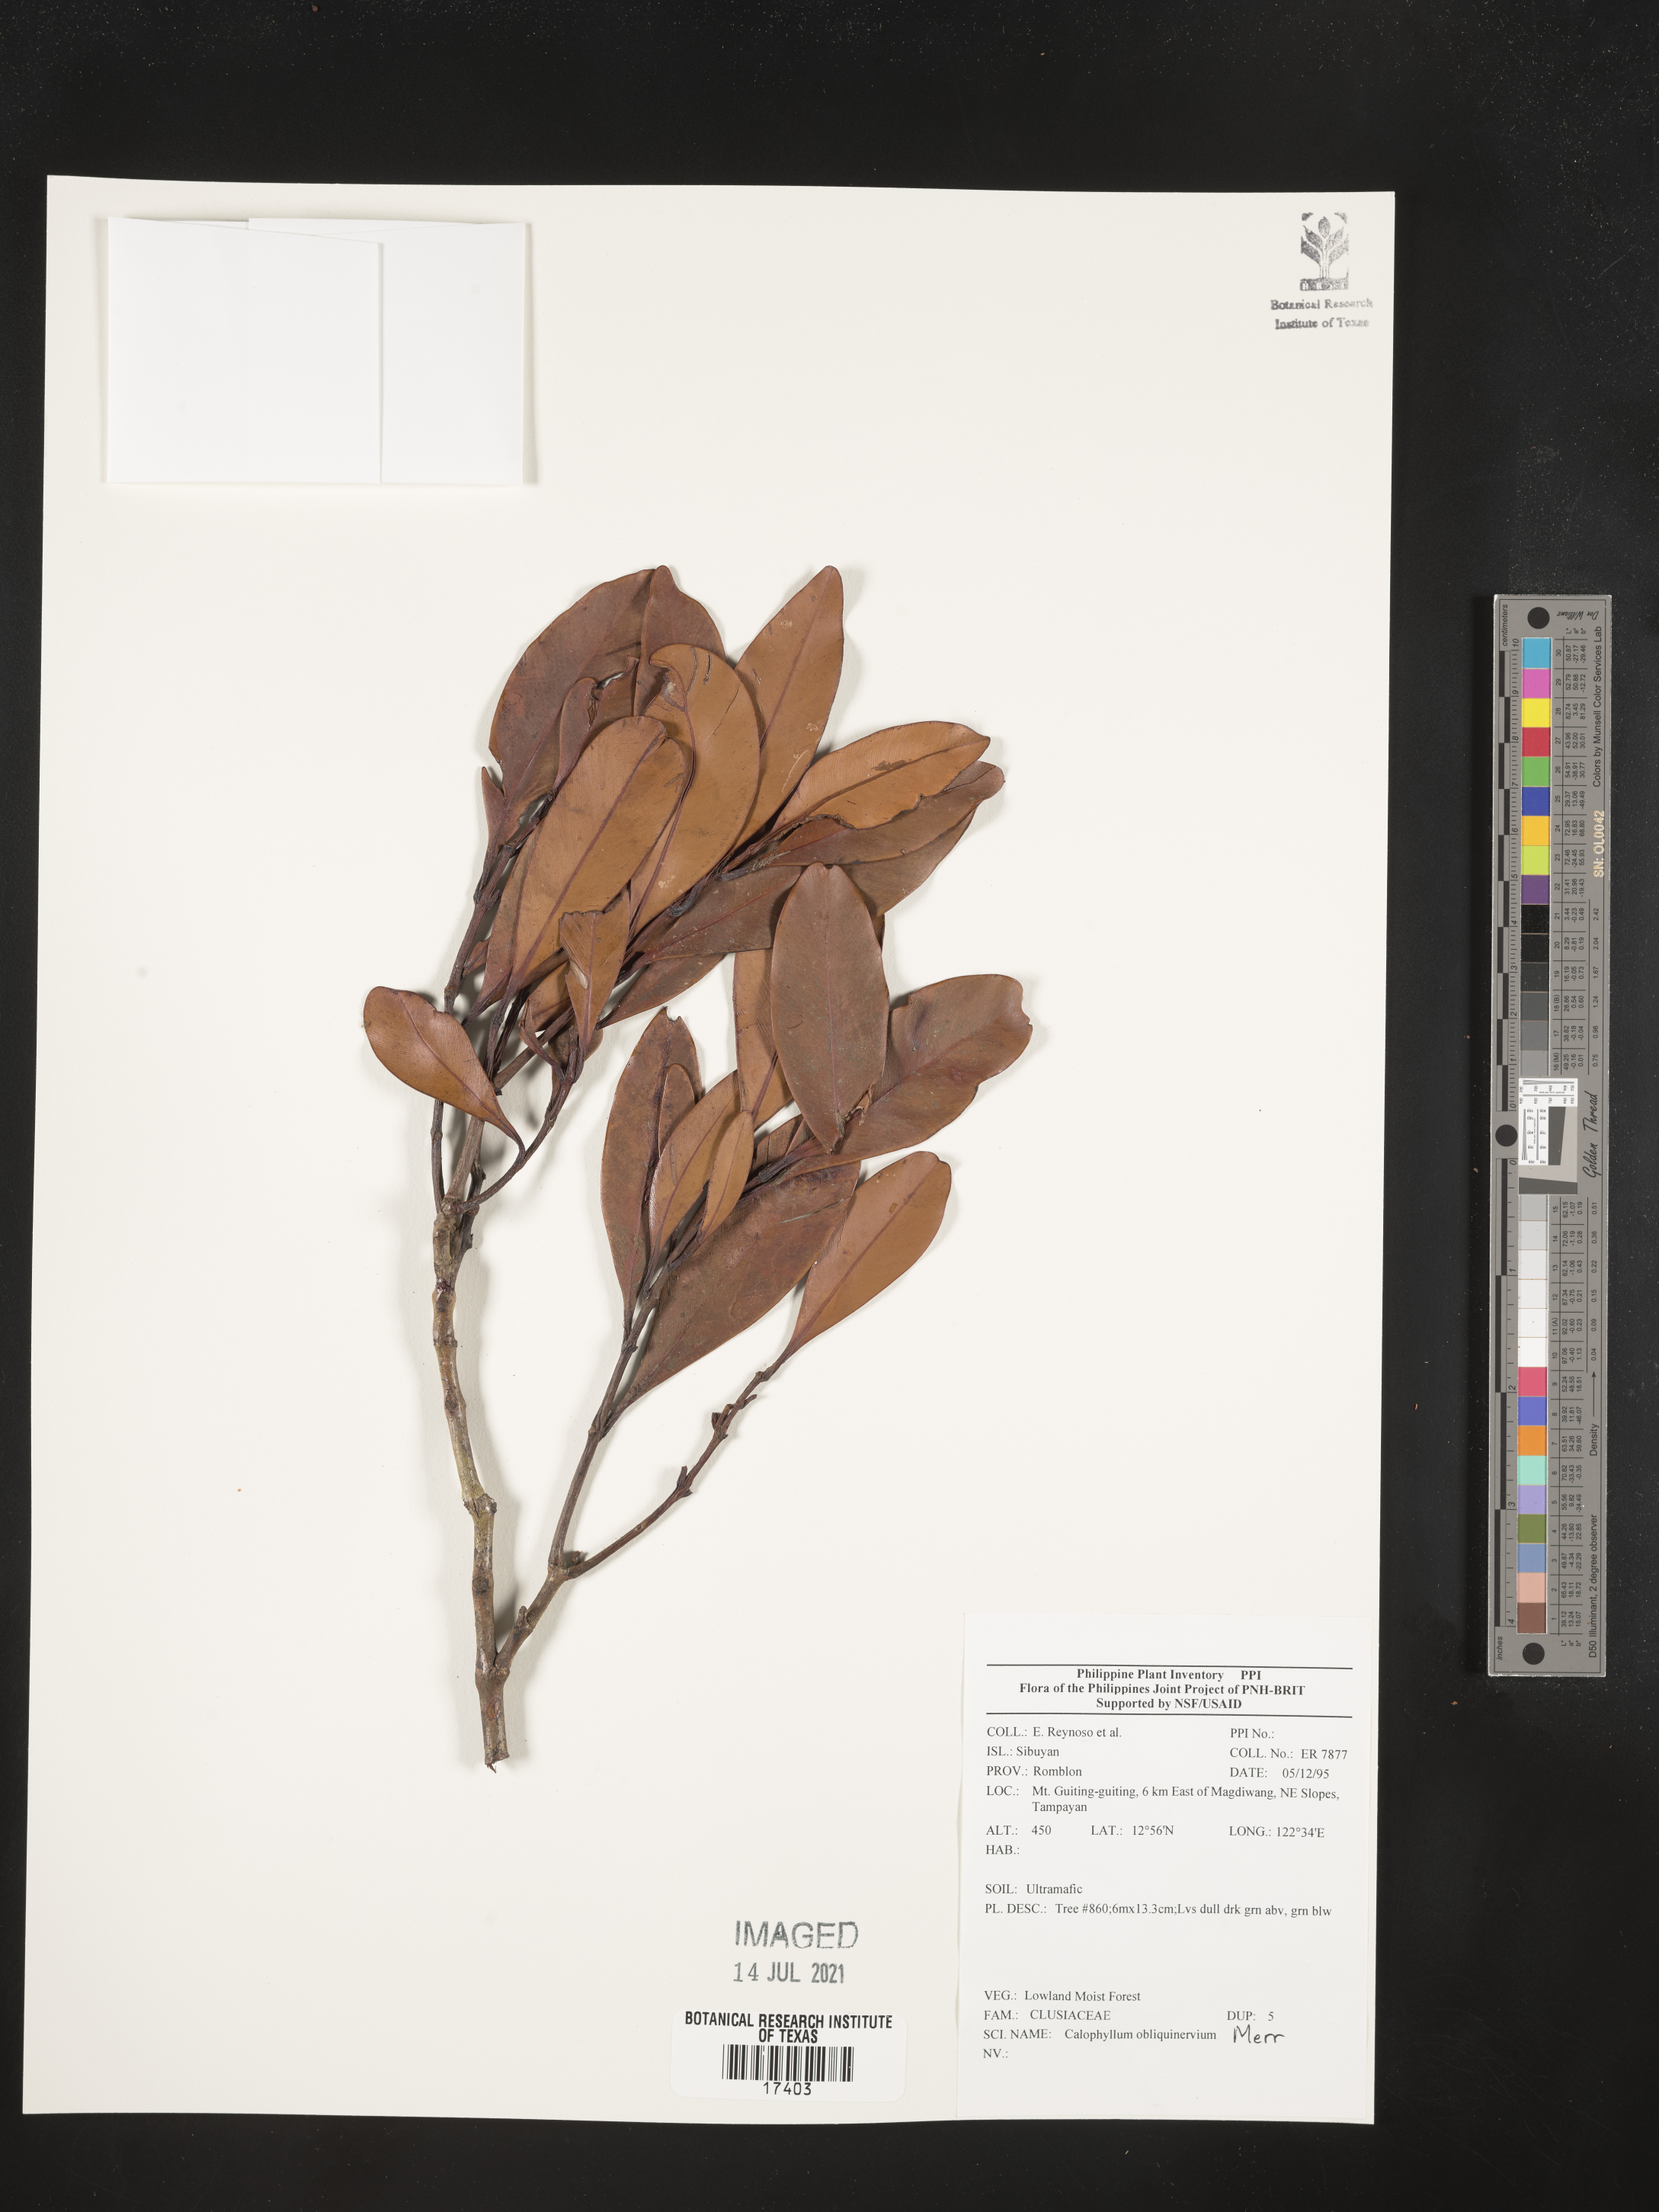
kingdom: Plantae
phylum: Tracheophyta
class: Magnoliopsida
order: Malpighiales
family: Calophyllaceae
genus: Calophyllum
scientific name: Calophyllum obliquinervium
